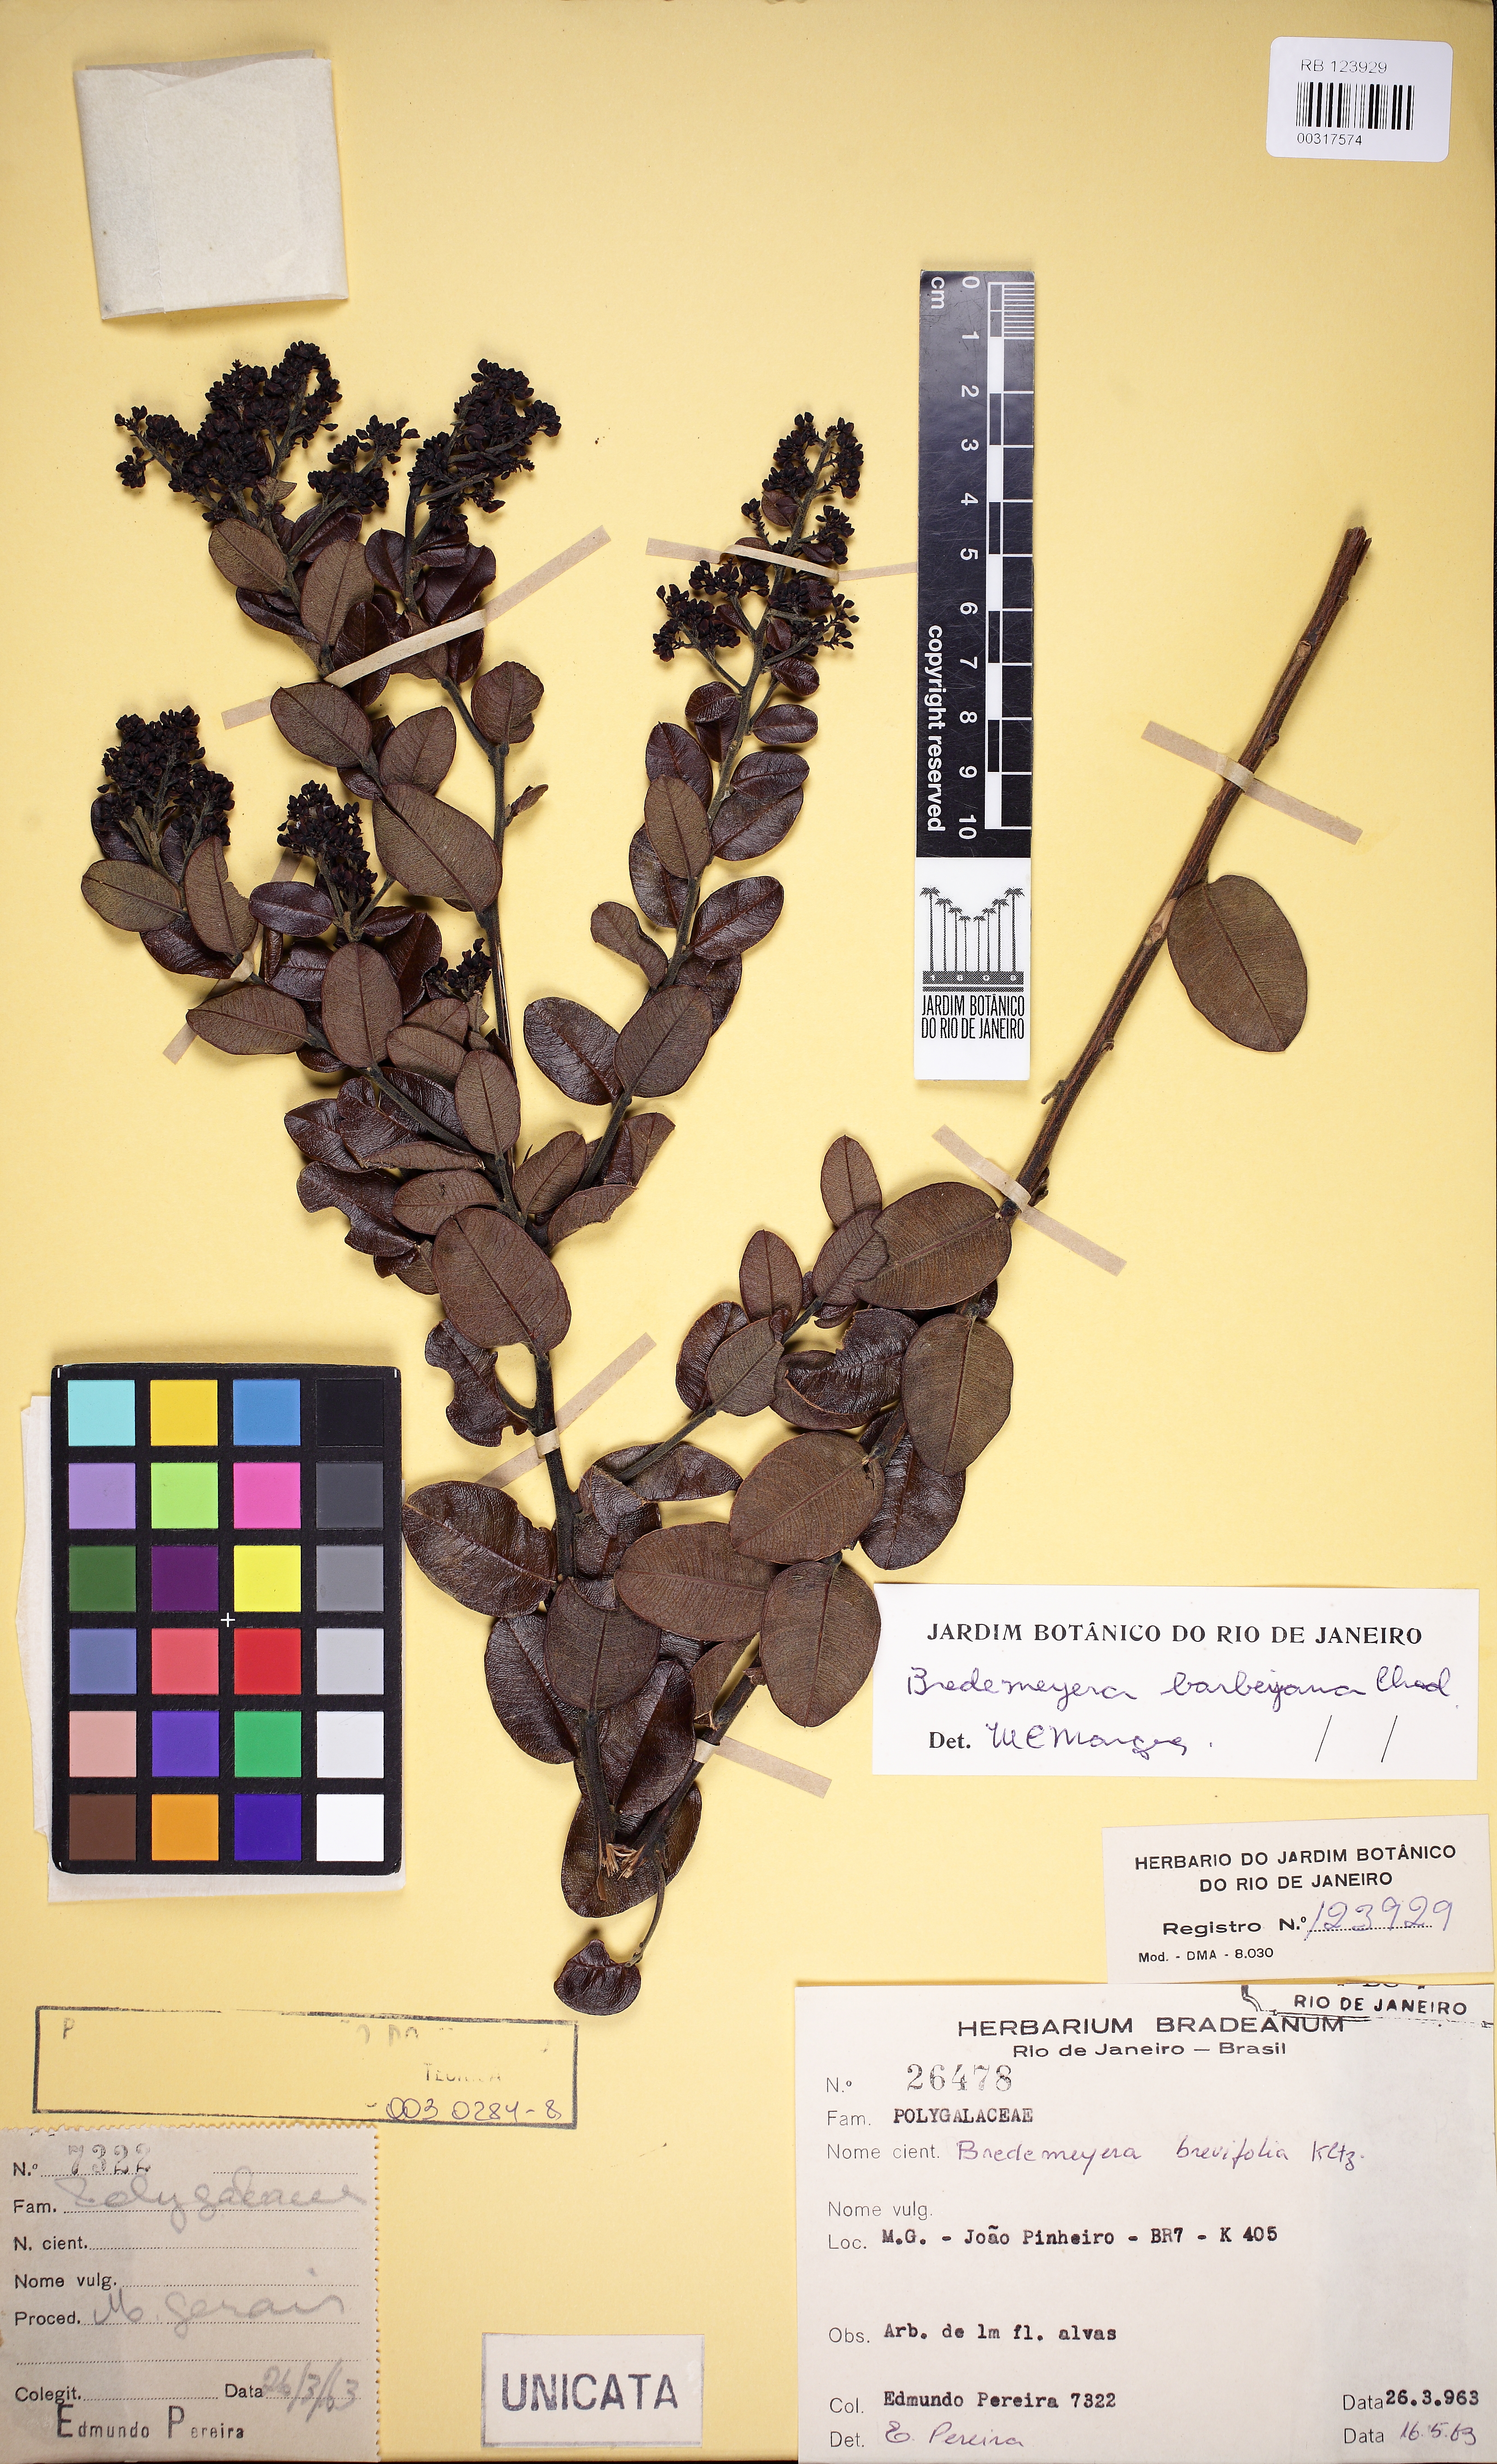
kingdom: Plantae
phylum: Tracheophyta
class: Magnoliopsida
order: Fabales
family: Polygalaceae
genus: Bredemeyera
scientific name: Bredemeyera barbeyana
